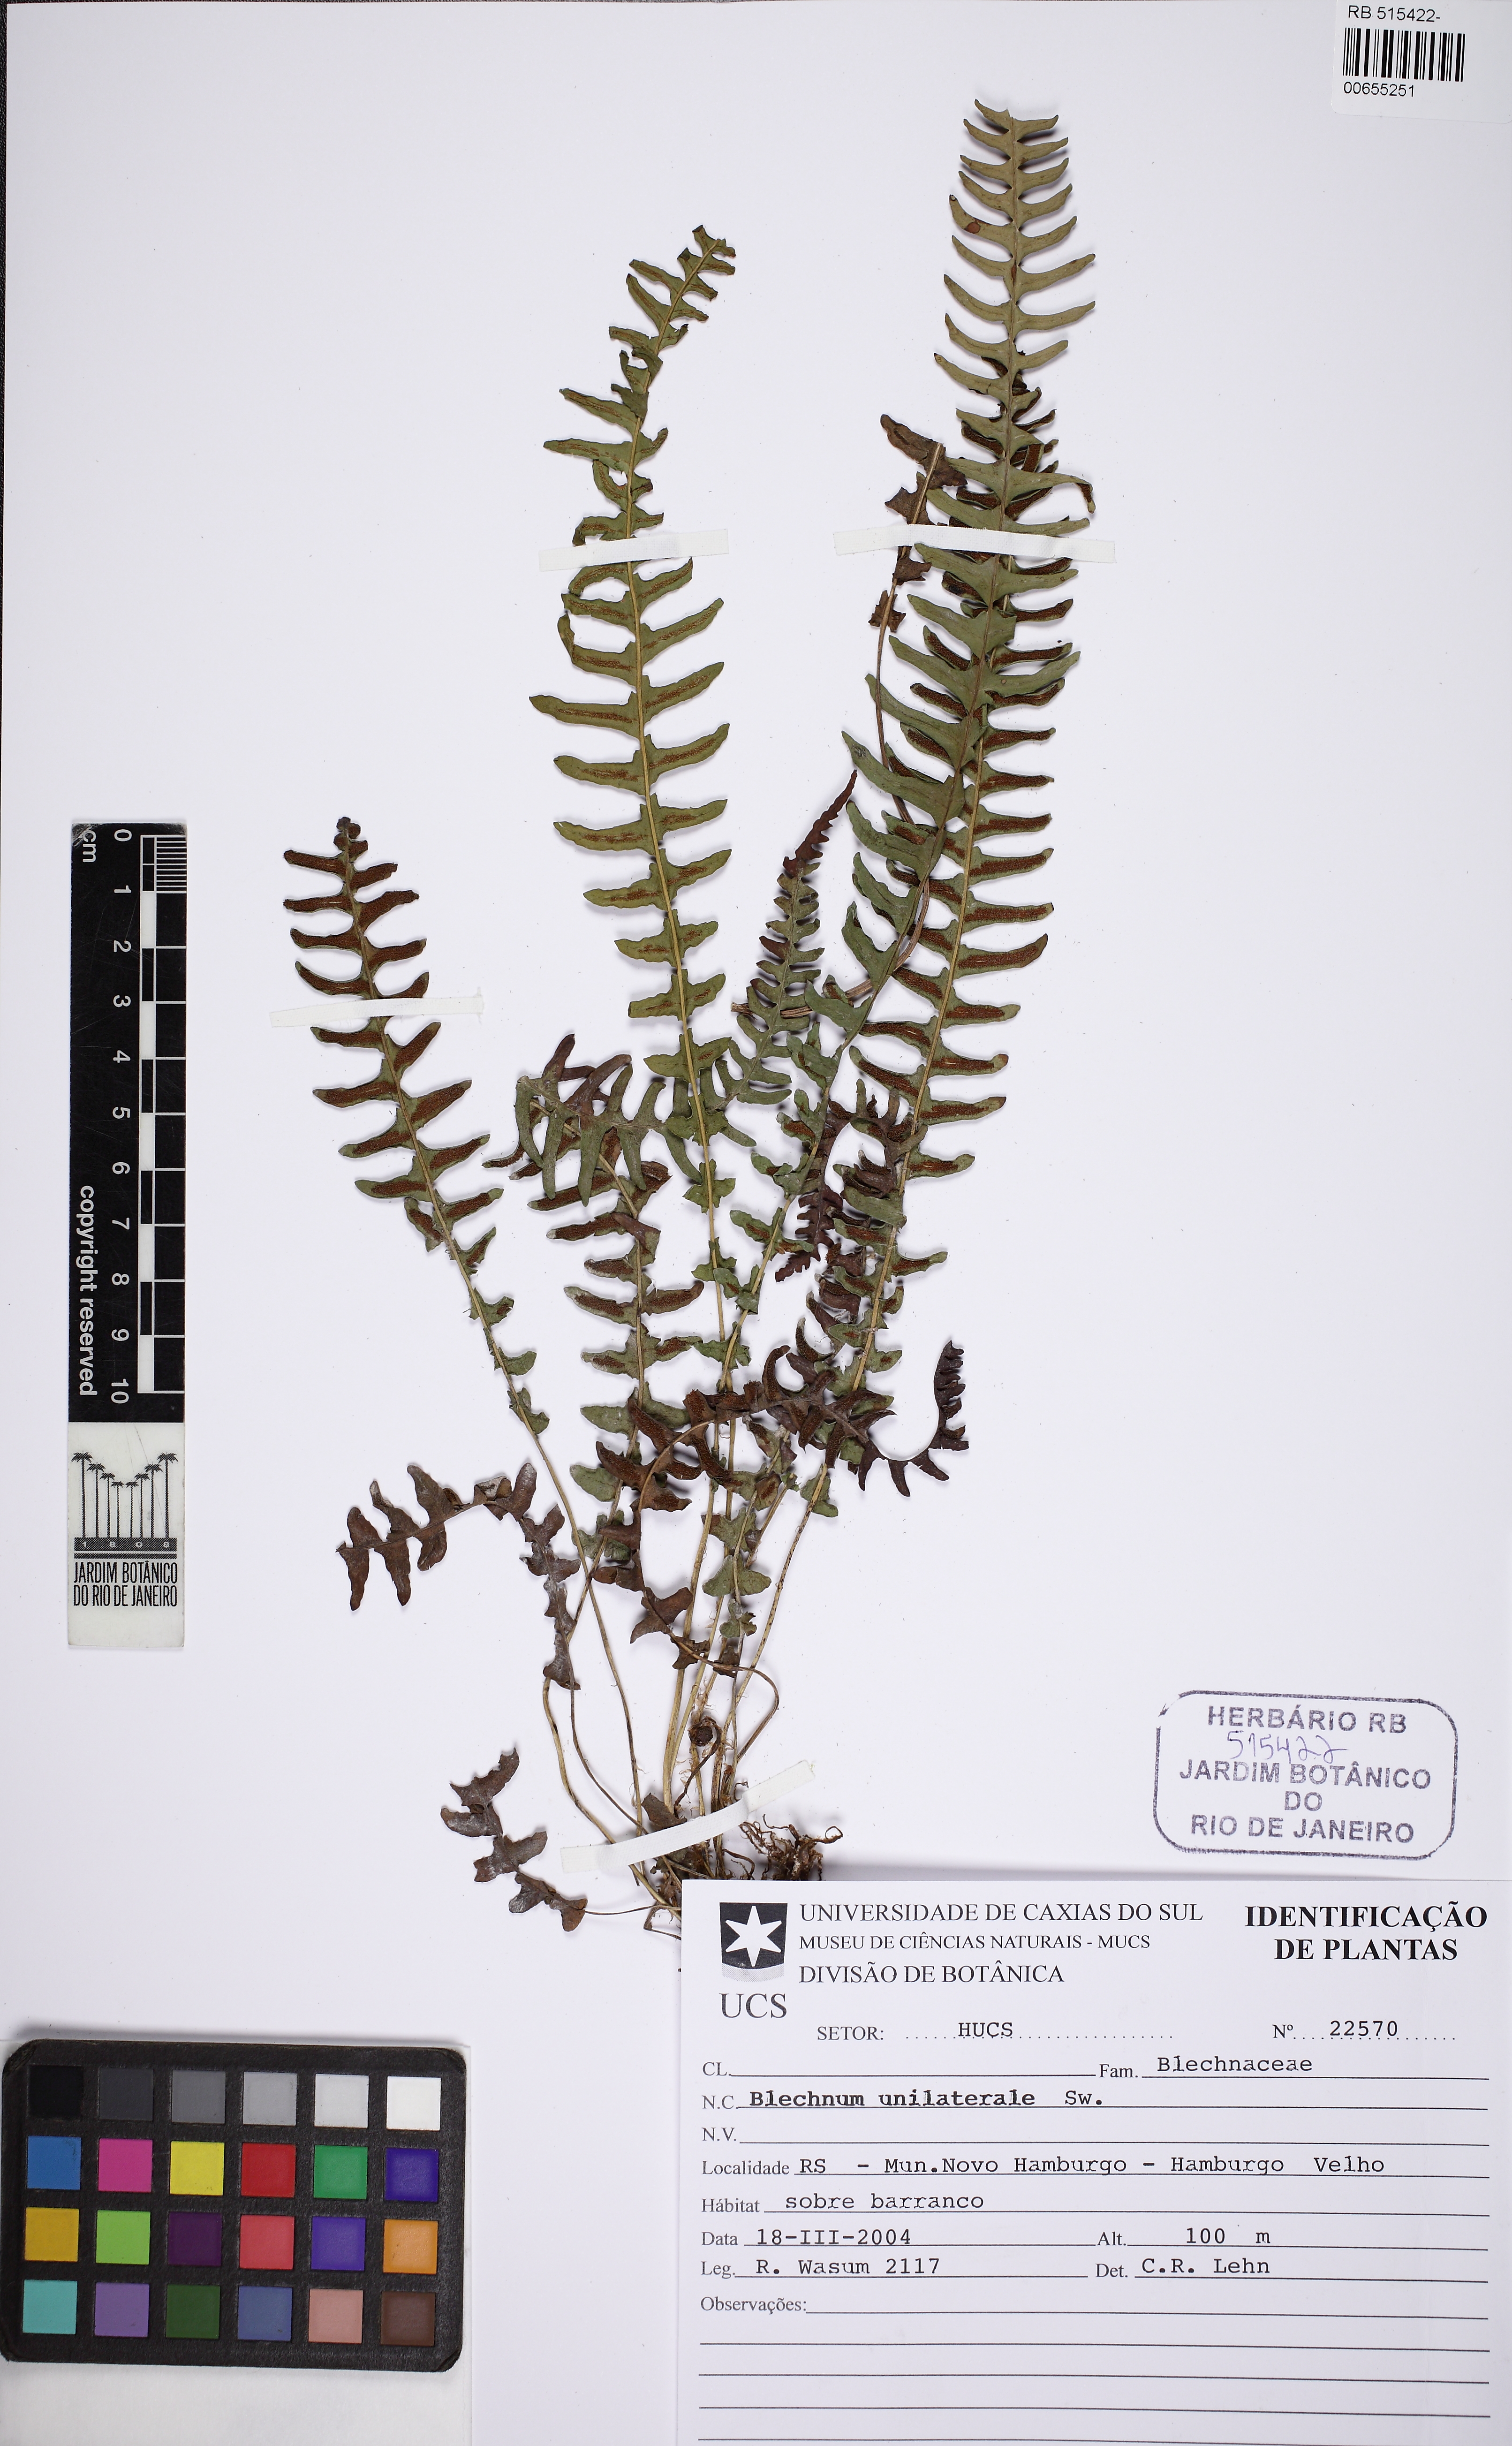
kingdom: Plantae
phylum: Tracheophyta
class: Polypodiopsida
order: Polypodiales
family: Blechnaceae
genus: Blechnum
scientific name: Blechnum polypodioides
